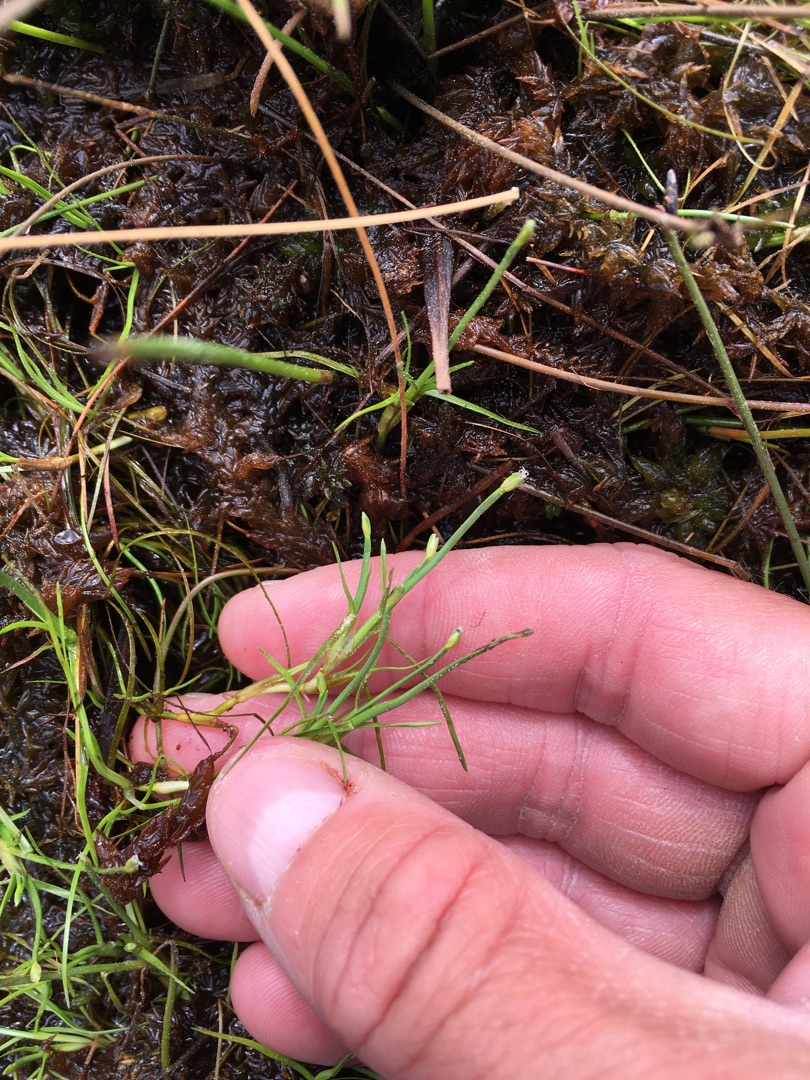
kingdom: Plantae
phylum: Tracheophyta
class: Liliopsida
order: Poales
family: Cyperaceae
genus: Isolepis
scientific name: Isolepis fluitans
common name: Flydende kogleaks
